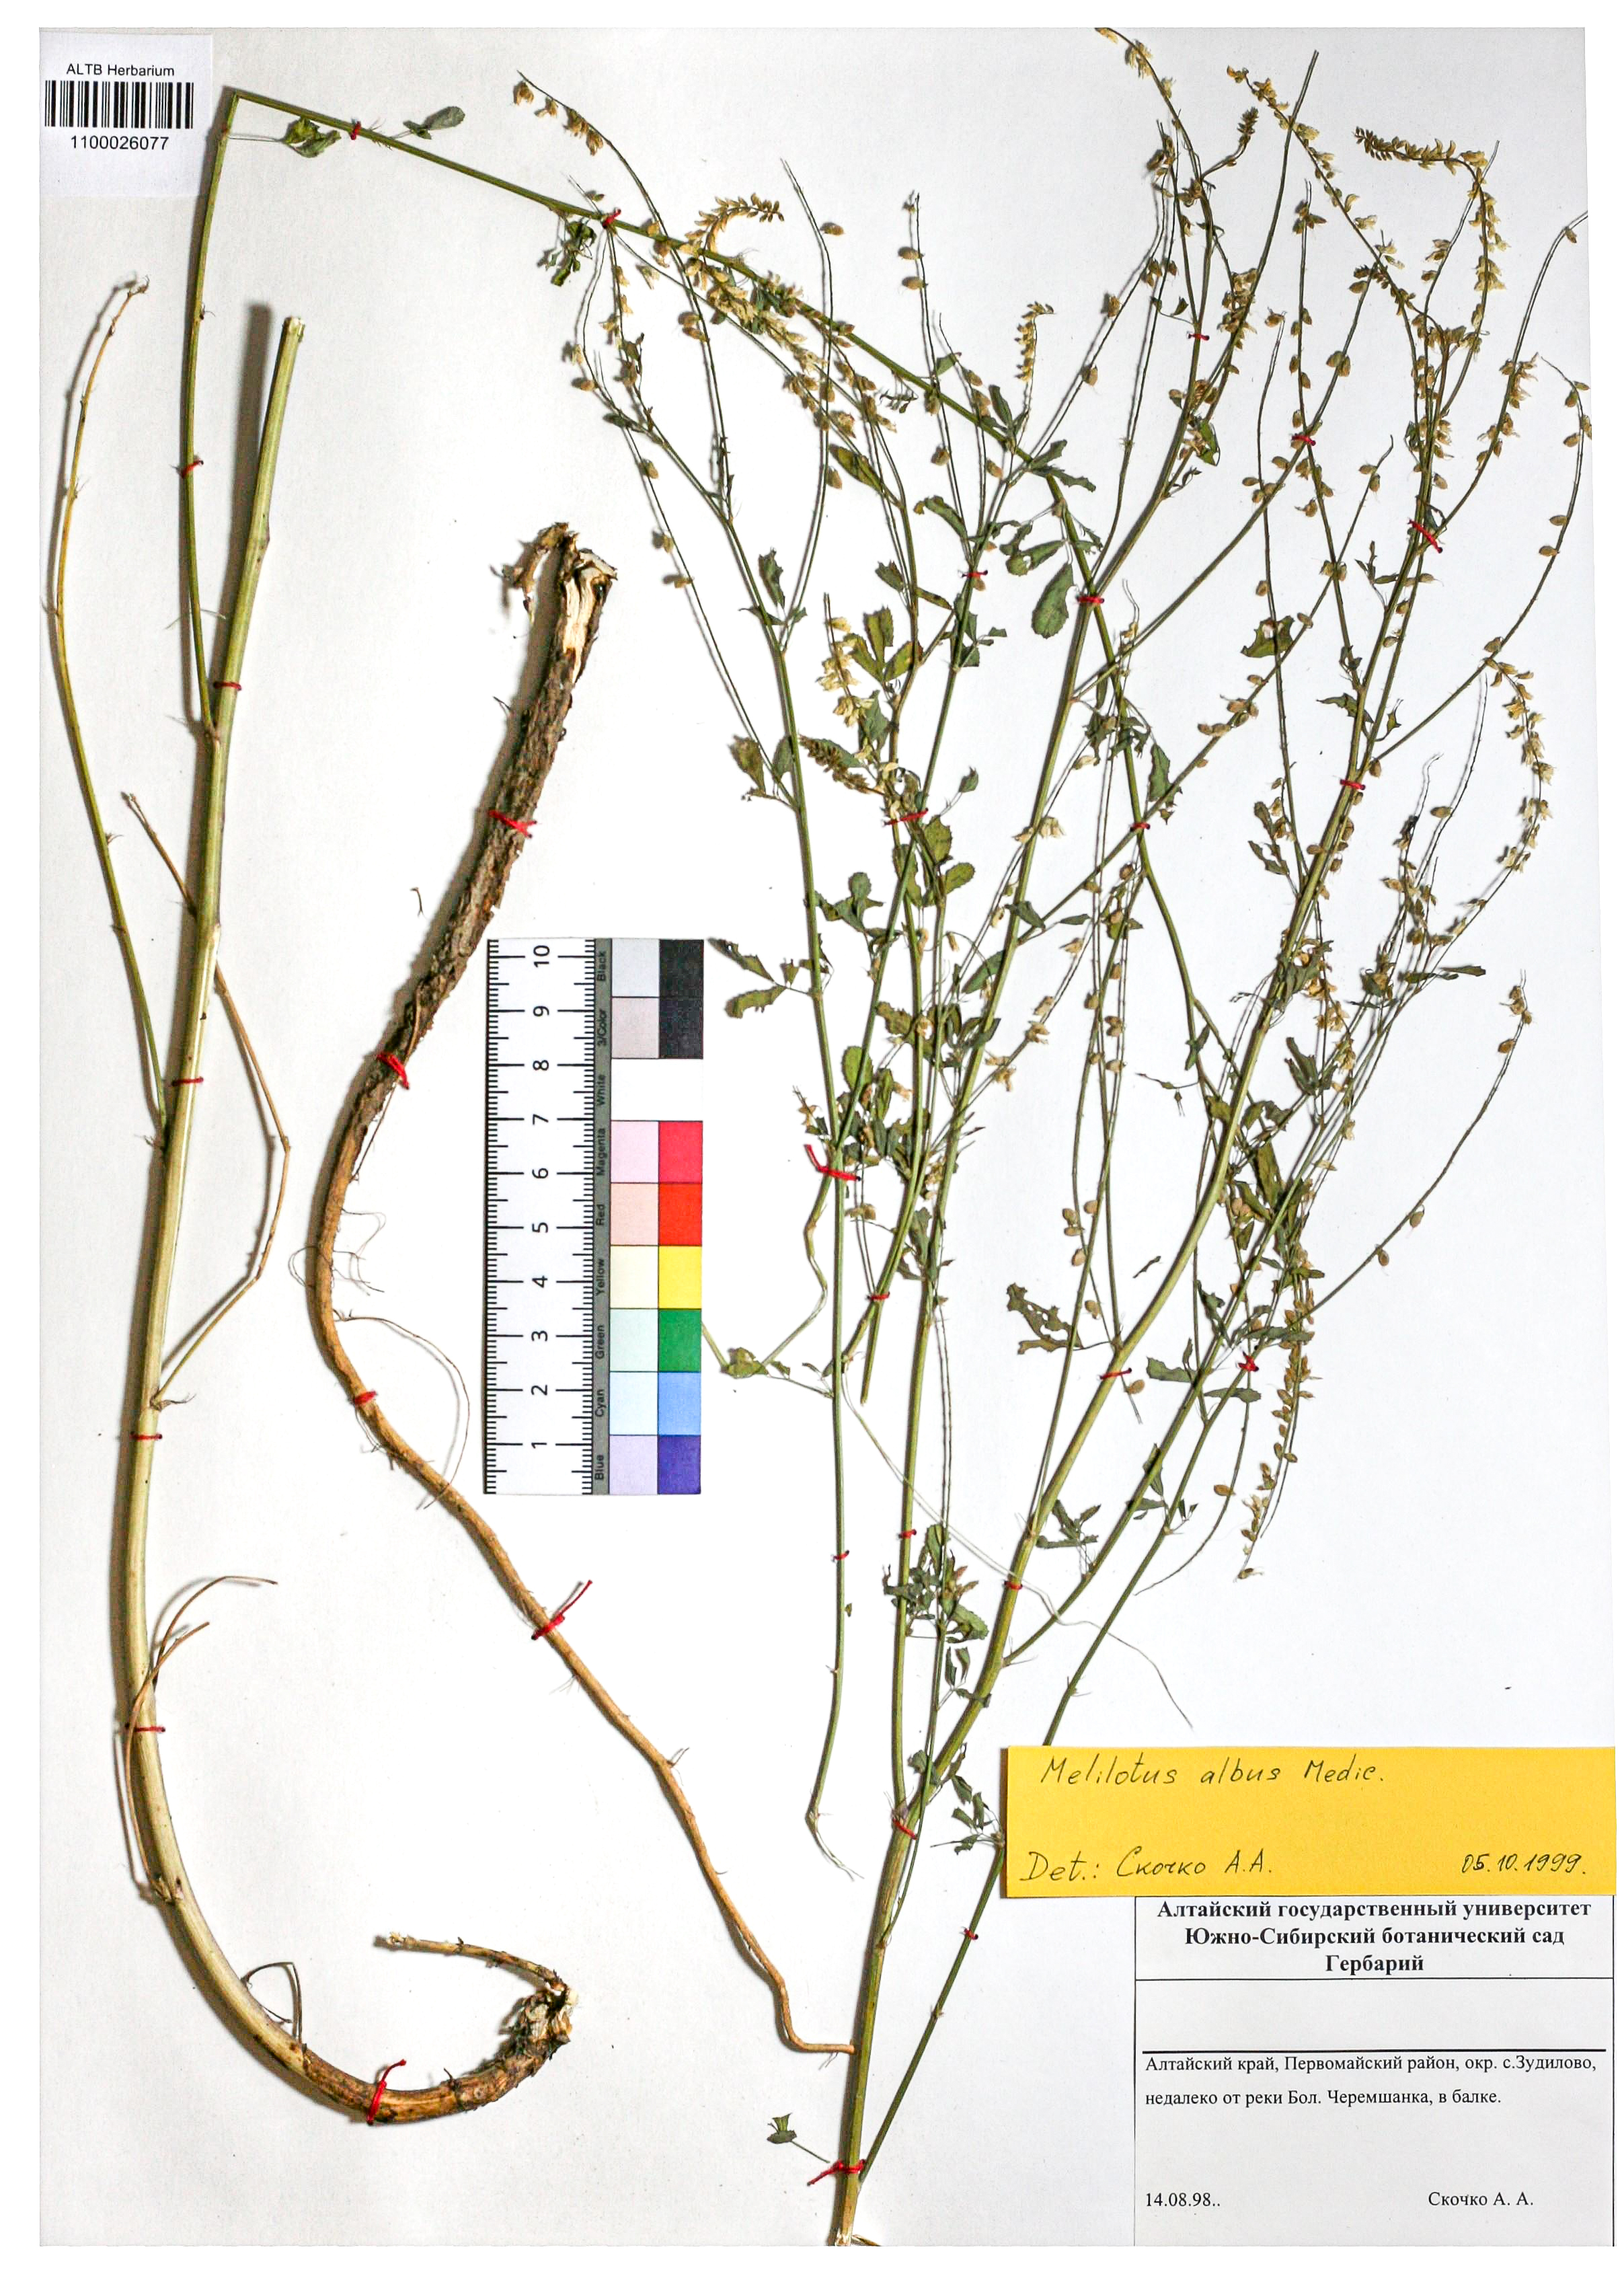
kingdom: Plantae
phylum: Tracheophyta
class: Magnoliopsida
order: Fabales
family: Fabaceae
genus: Melilotus
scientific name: Melilotus albus
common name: White melilot
